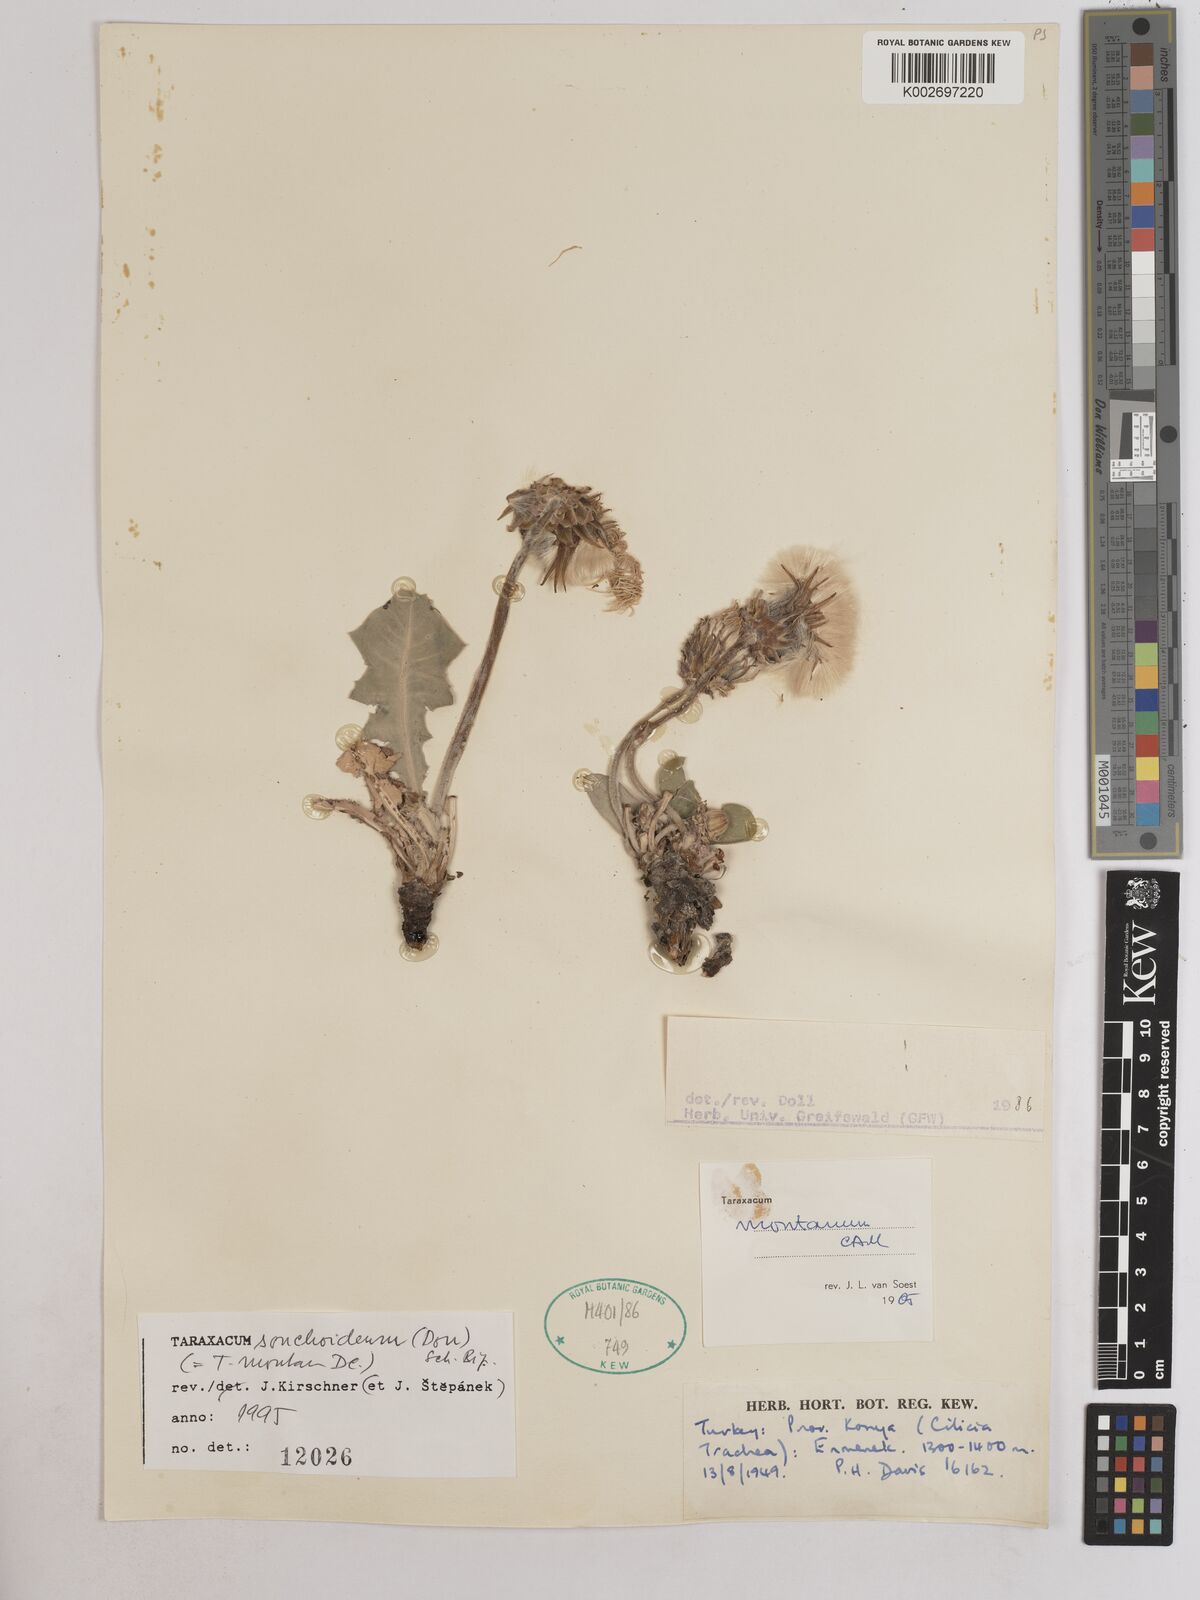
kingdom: Plantae
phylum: Tracheophyta
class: Magnoliopsida
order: Asterales
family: Asteraceae
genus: Taraxacum
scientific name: Taraxacum sonchoides
